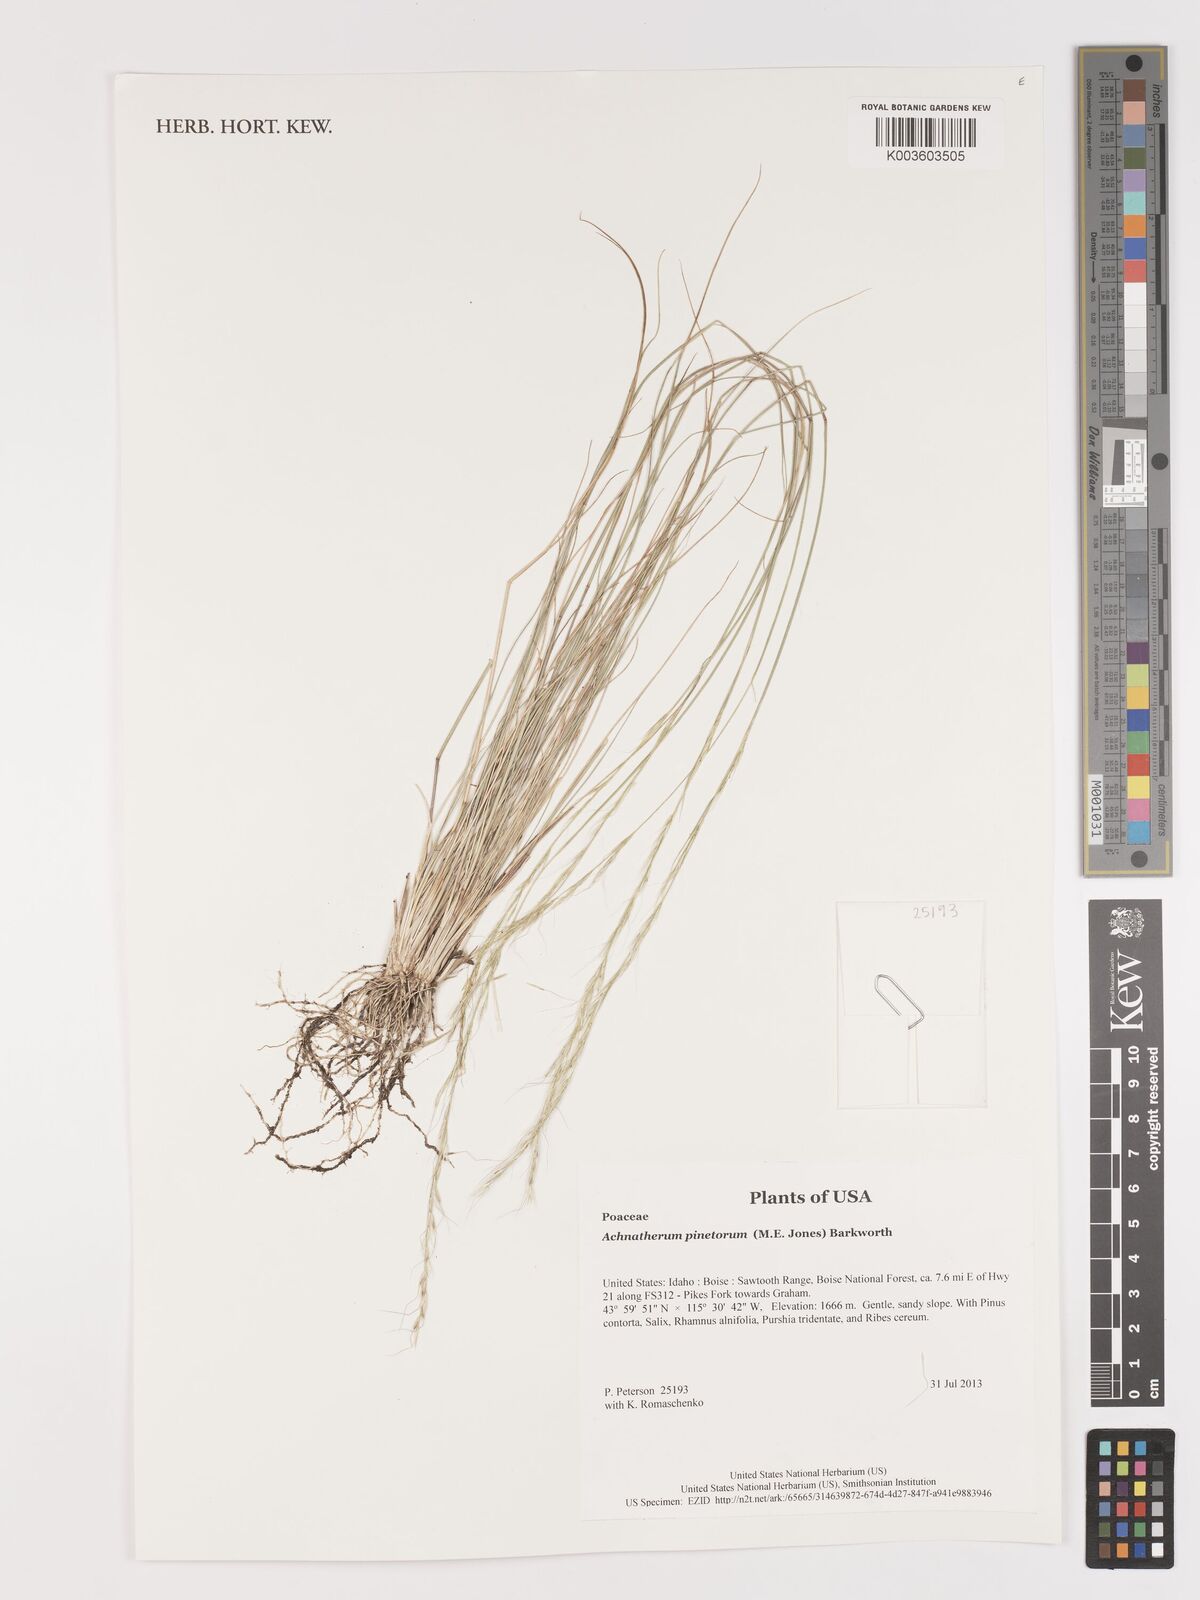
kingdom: Plantae
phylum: Tracheophyta
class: Liliopsida
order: Poales
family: Poaceae
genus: Eriocoma
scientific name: Eriocoma pinetorum
